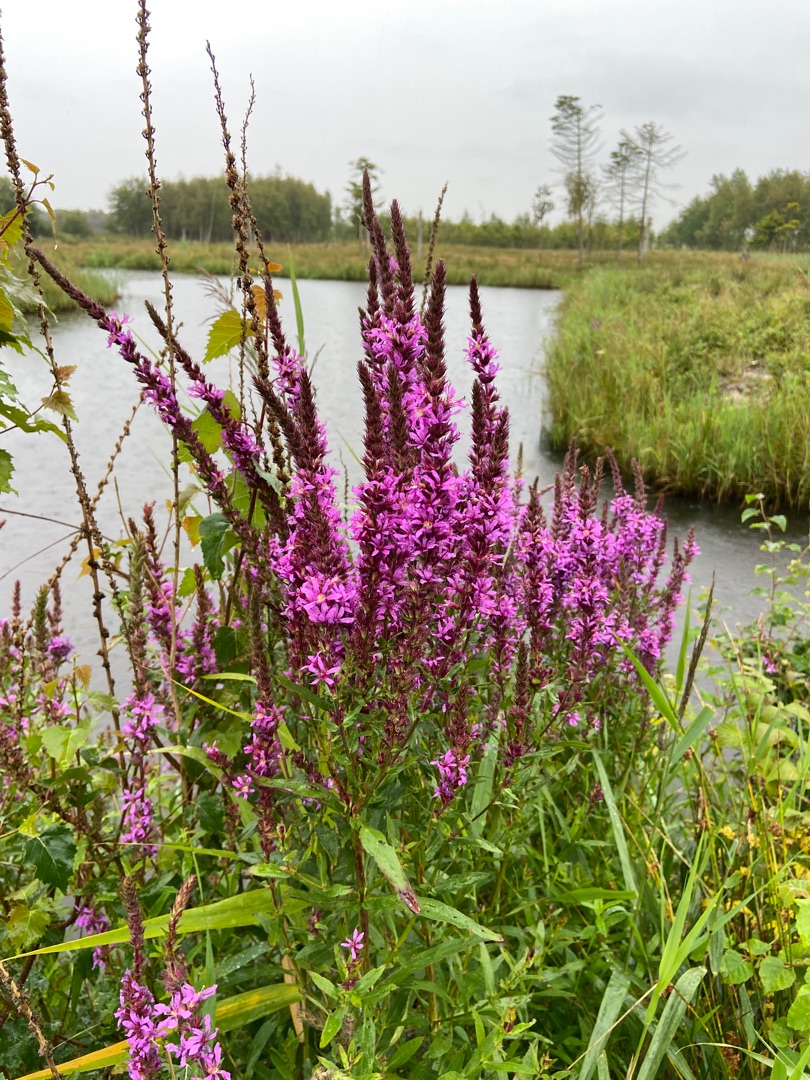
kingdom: Plantae
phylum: Tracheophyta
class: Magnoliopsida
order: Myrtales
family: Lythraceae
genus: Lythrum
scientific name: Lythrum salicaria
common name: Kattehale
